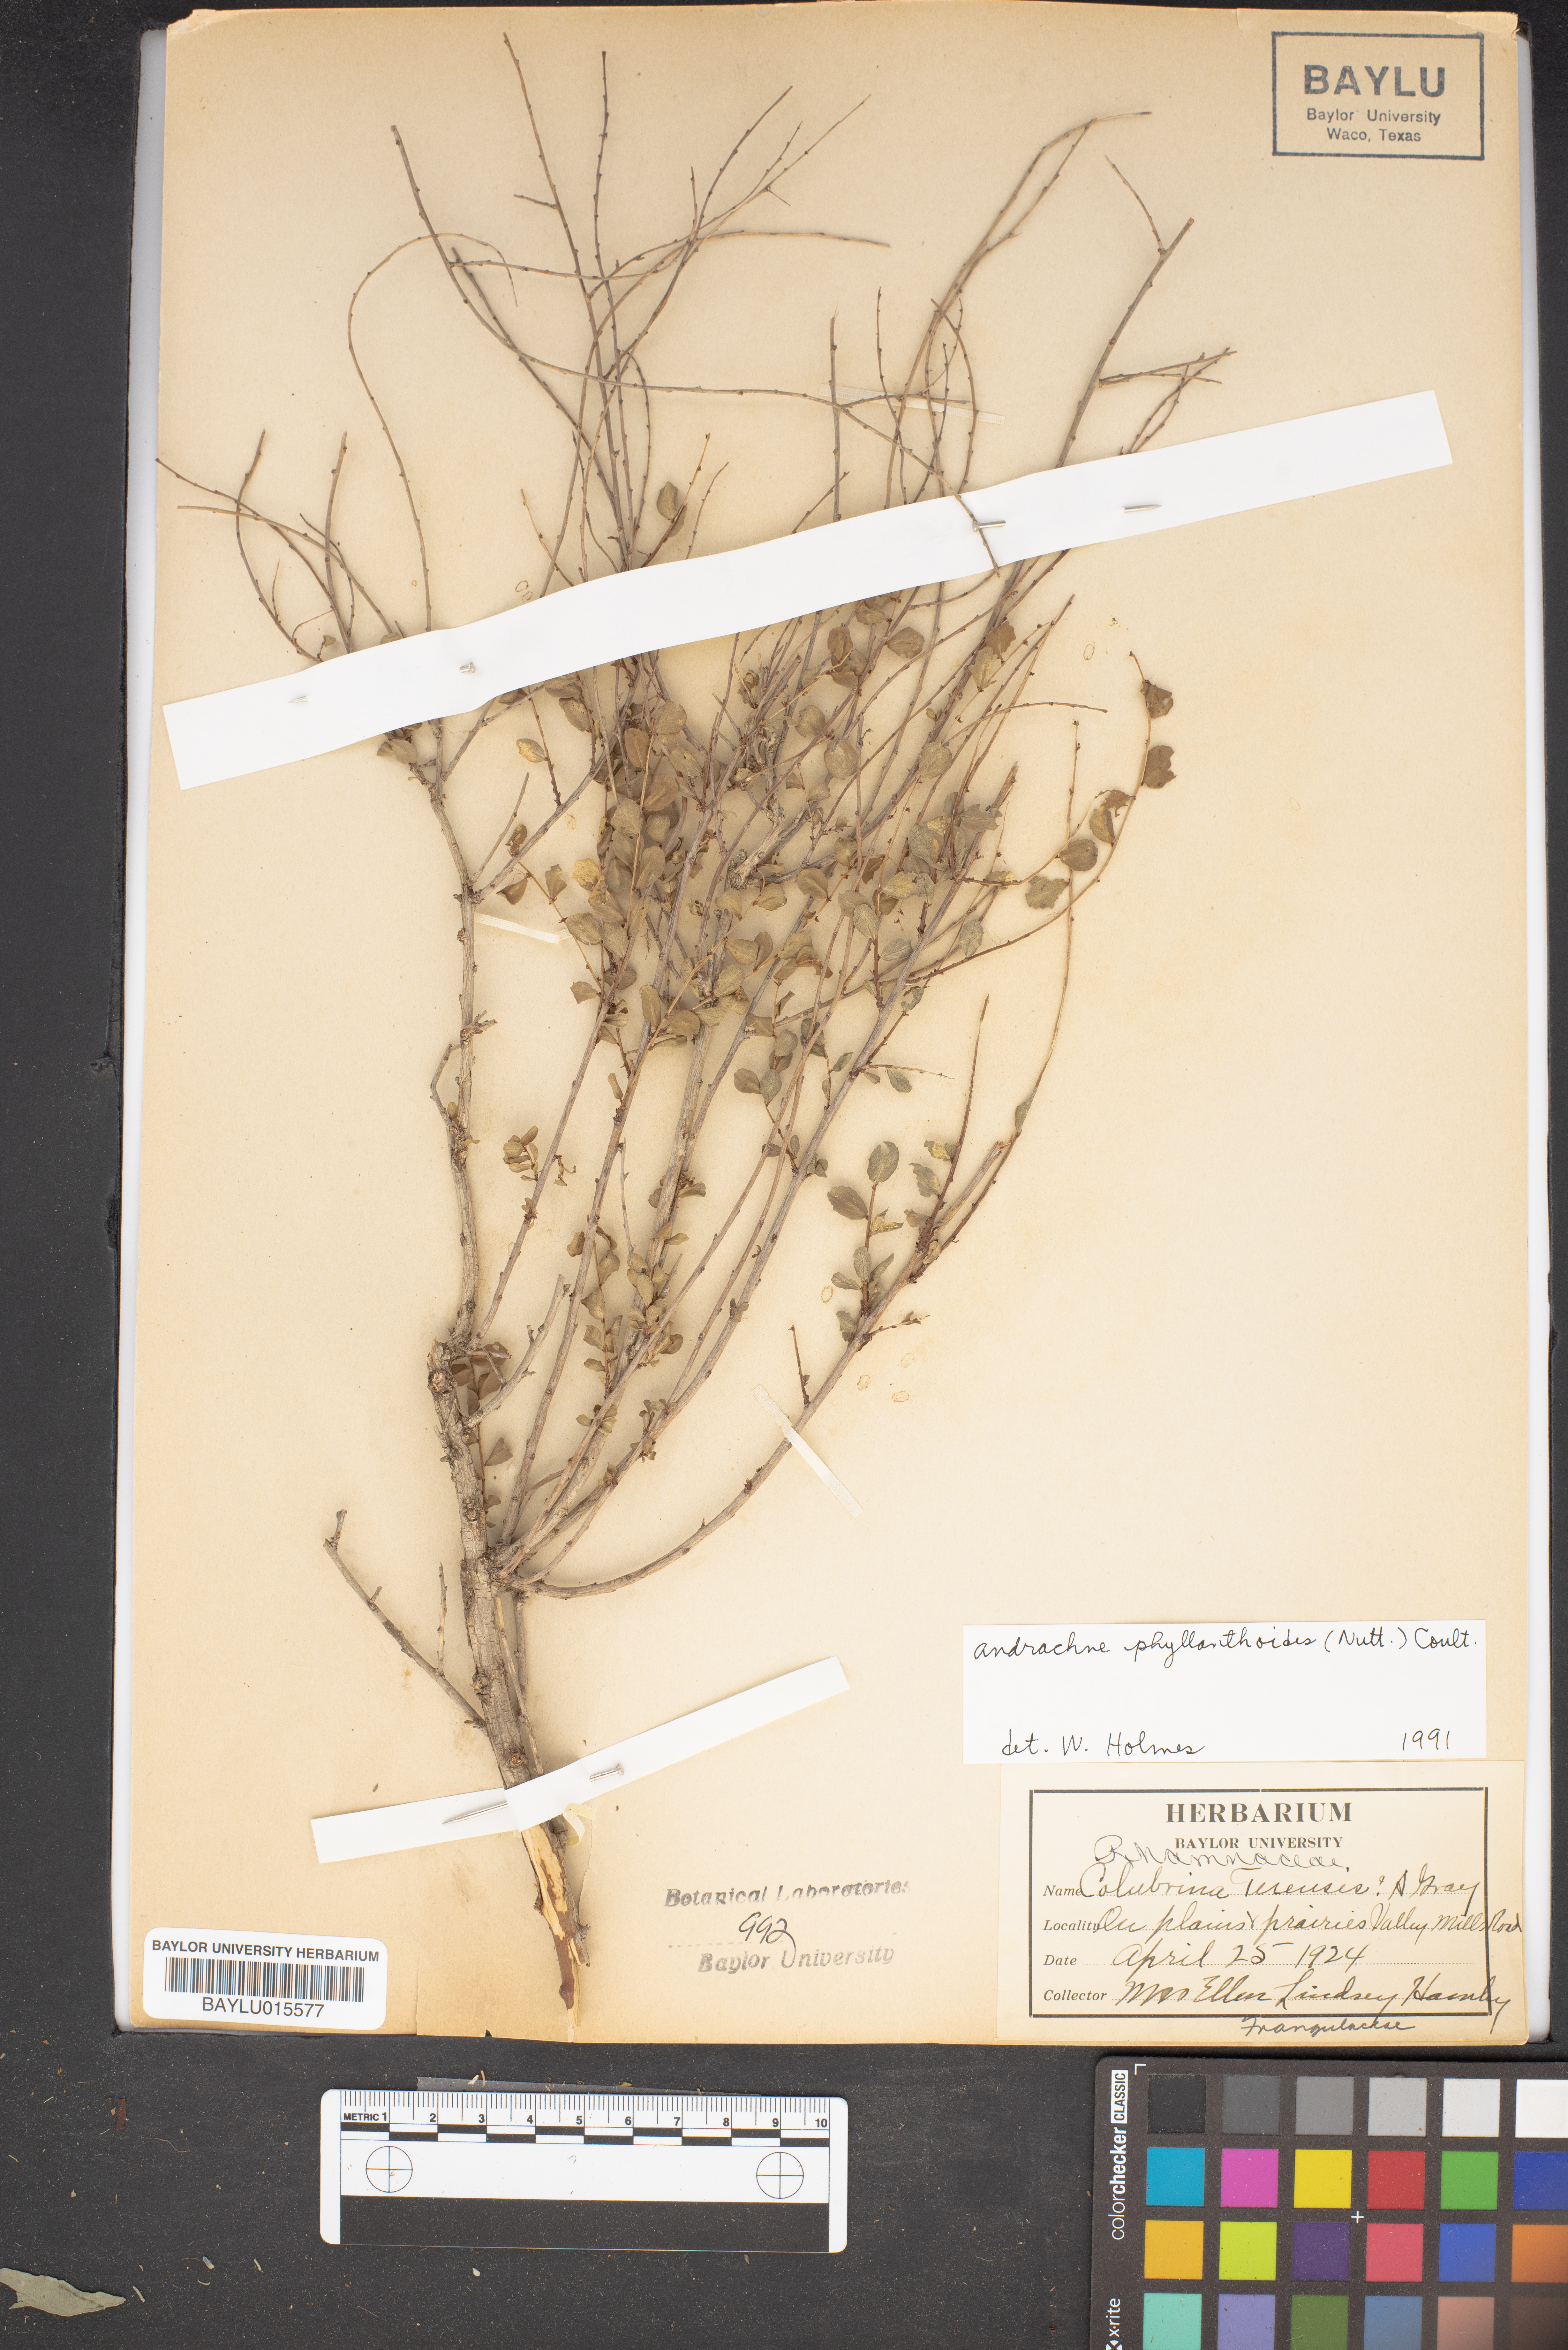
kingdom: Plantae
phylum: Tracheophyta
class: Magnoliopsida
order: Malpighiales
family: Phyllanthaceae
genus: Phyllanthopsis
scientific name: Phyllanthopsis phyllanthoides
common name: Missouri maidenbush
